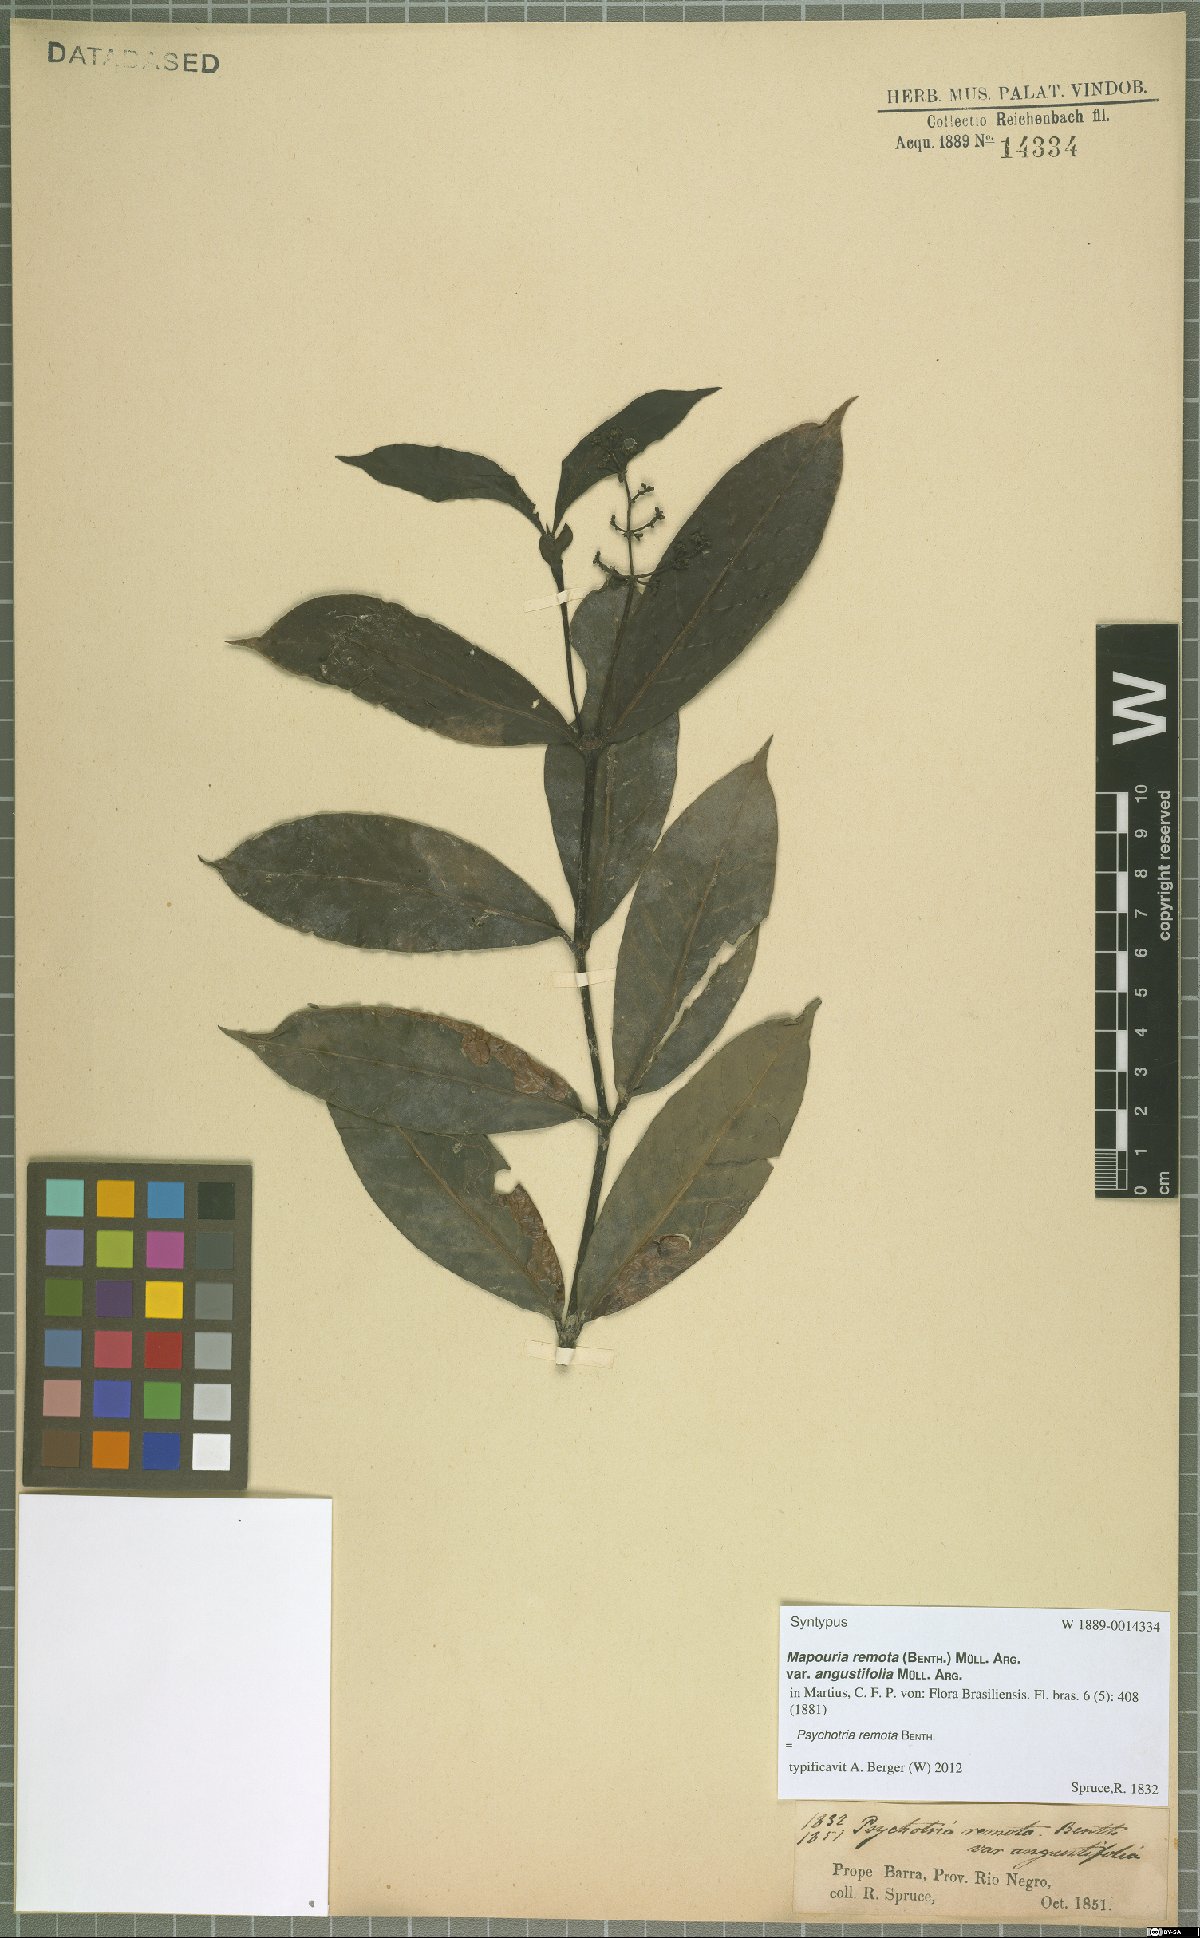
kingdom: Plantae
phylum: Tracheophyta
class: Magnoliopsida
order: Gentianales
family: Rubiaceae
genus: Psychotria
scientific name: Psychotria remota
